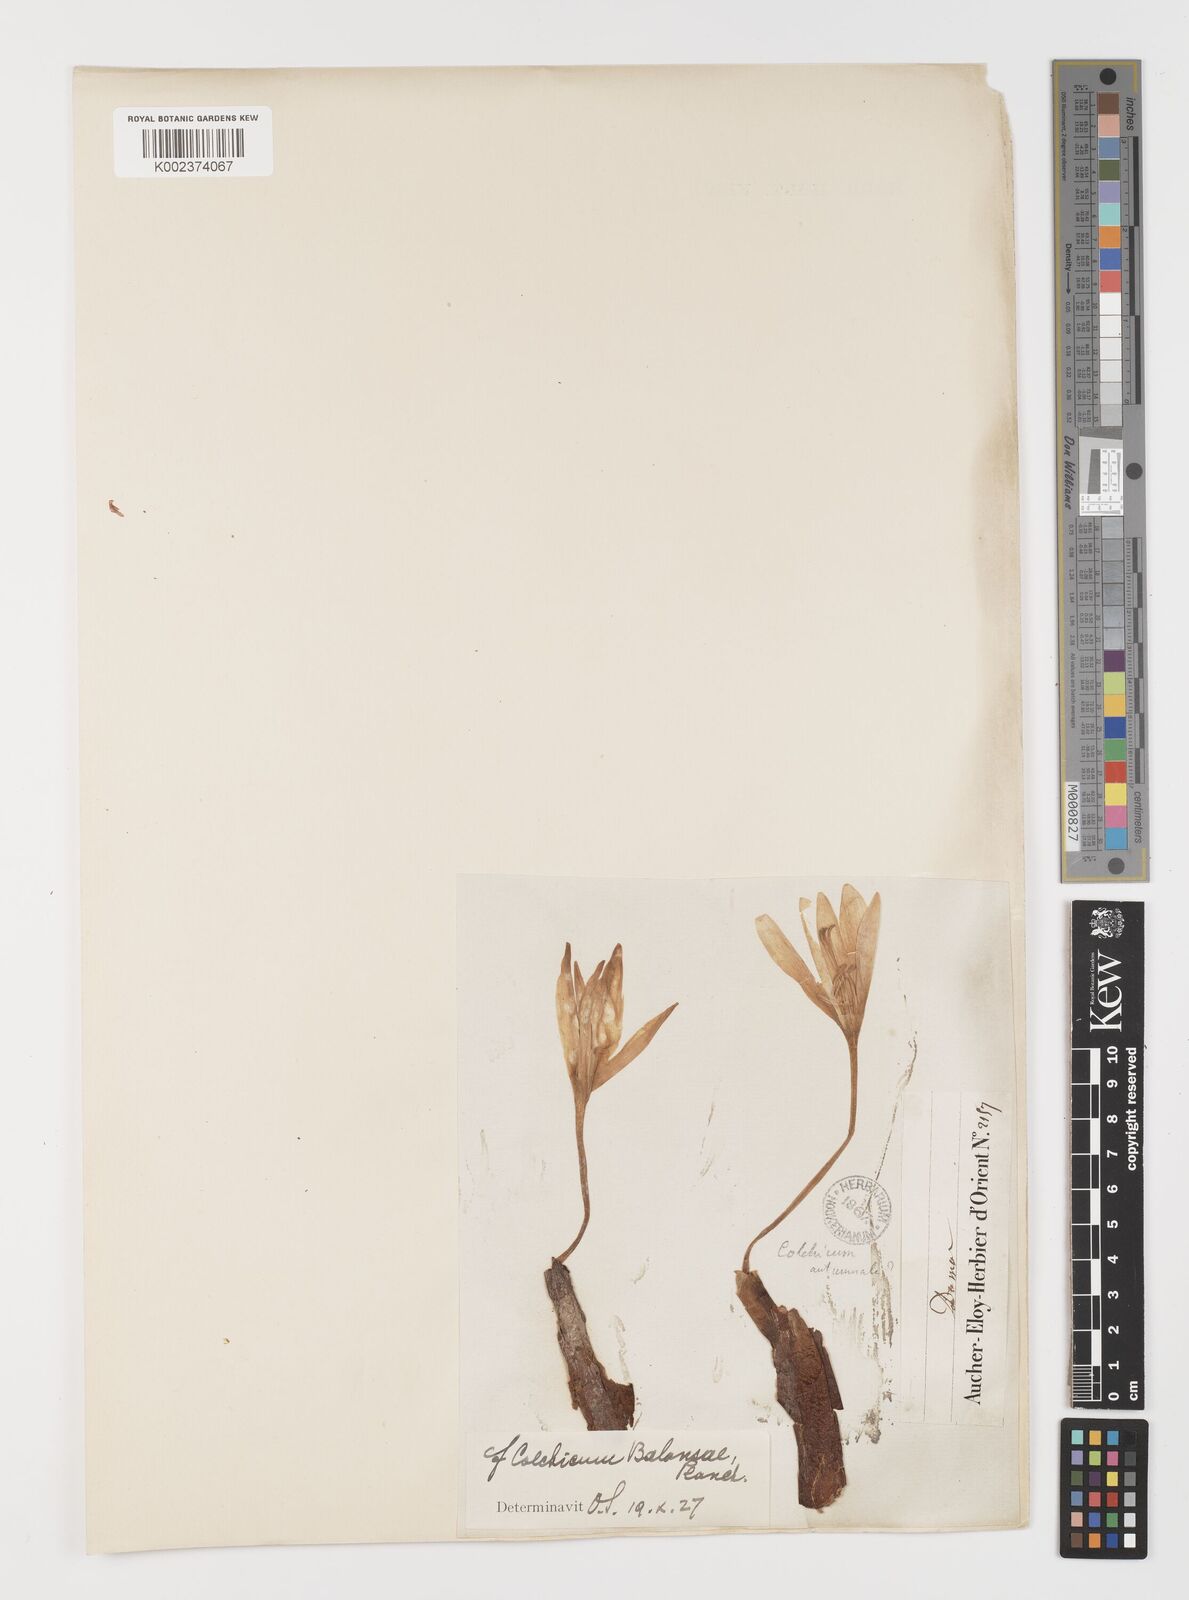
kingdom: Plantae
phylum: Tracheophyta
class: Liliopsida
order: Liliales
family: Colchicaceae
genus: Colchicum
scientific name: Colchicum balansae
